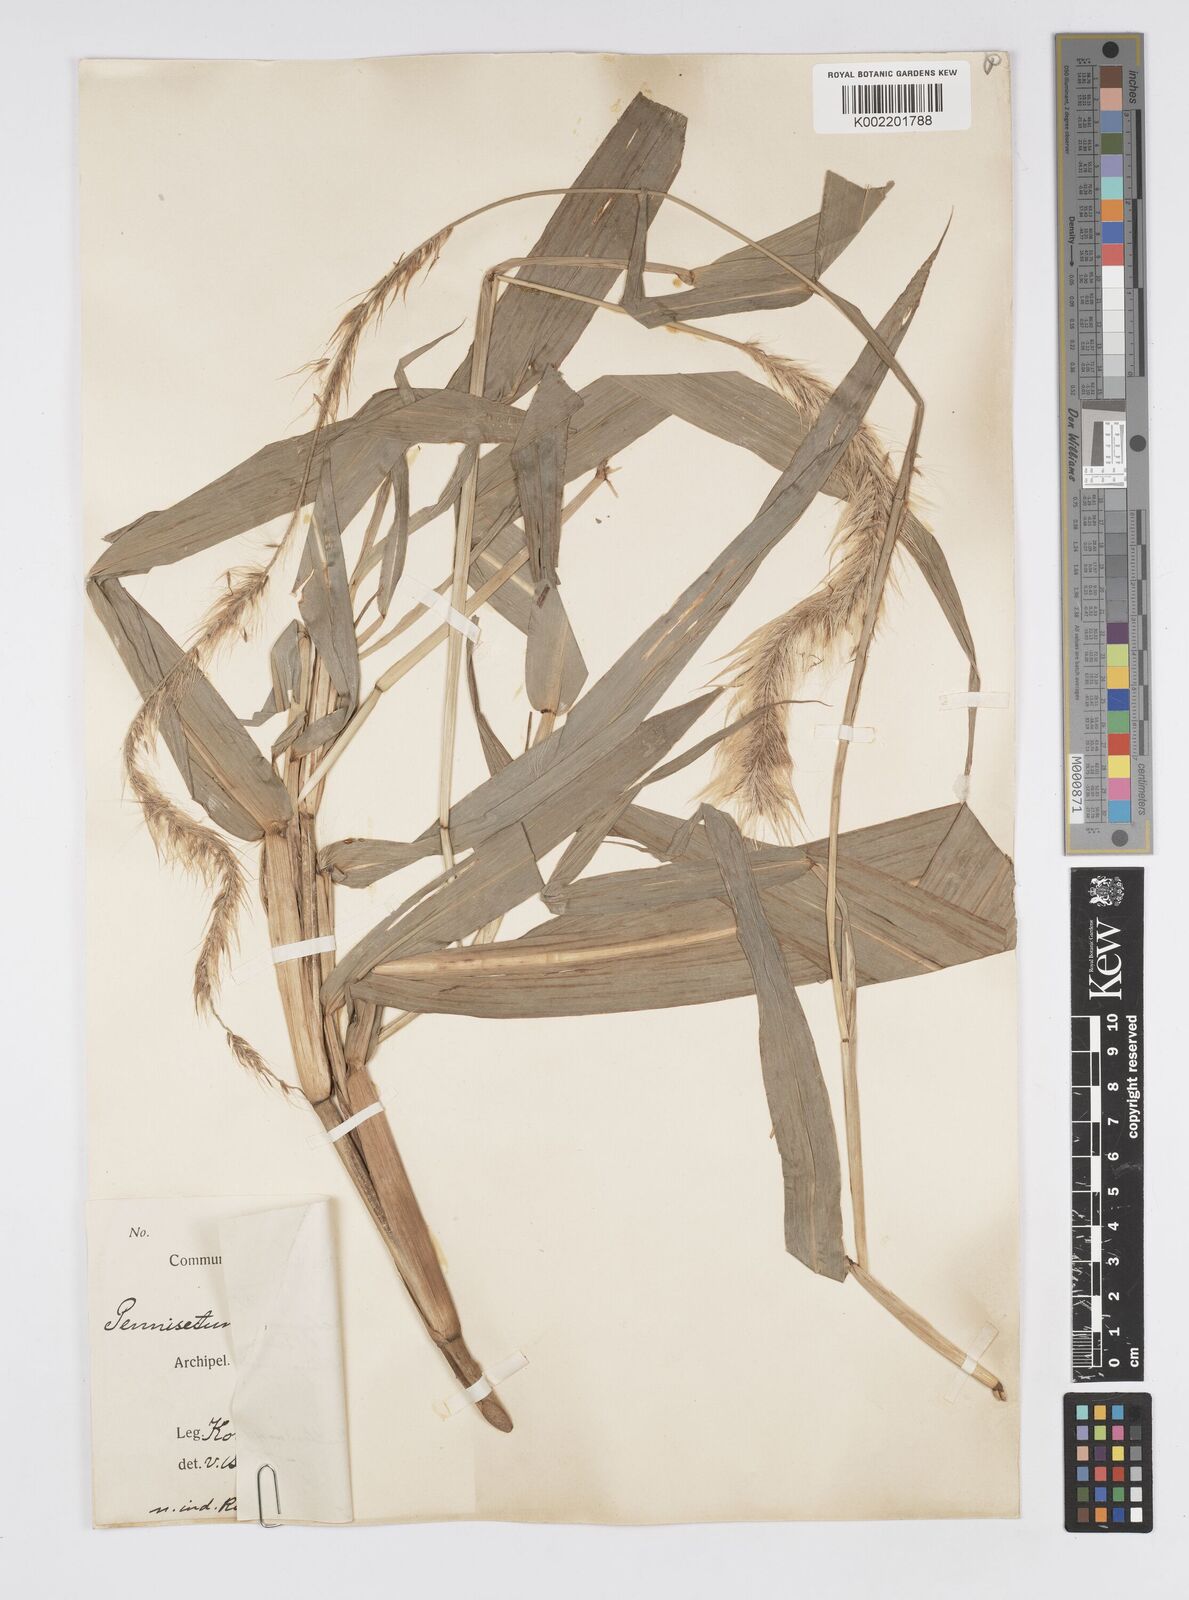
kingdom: Plantae
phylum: Tracheophyta
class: Liliopsida
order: Poales
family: Poaceae
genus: Cenchrus
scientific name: Cenchrus purpureus
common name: Elephant grass
